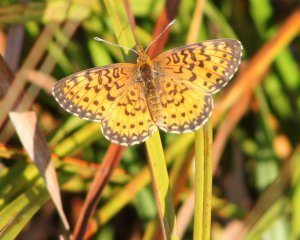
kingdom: Animalia
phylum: Arthropoda
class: Insecta
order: Lepidoptera
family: Nymphalidae
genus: Boloria
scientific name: Boloria selene
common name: Silver-bordered Fritillary
